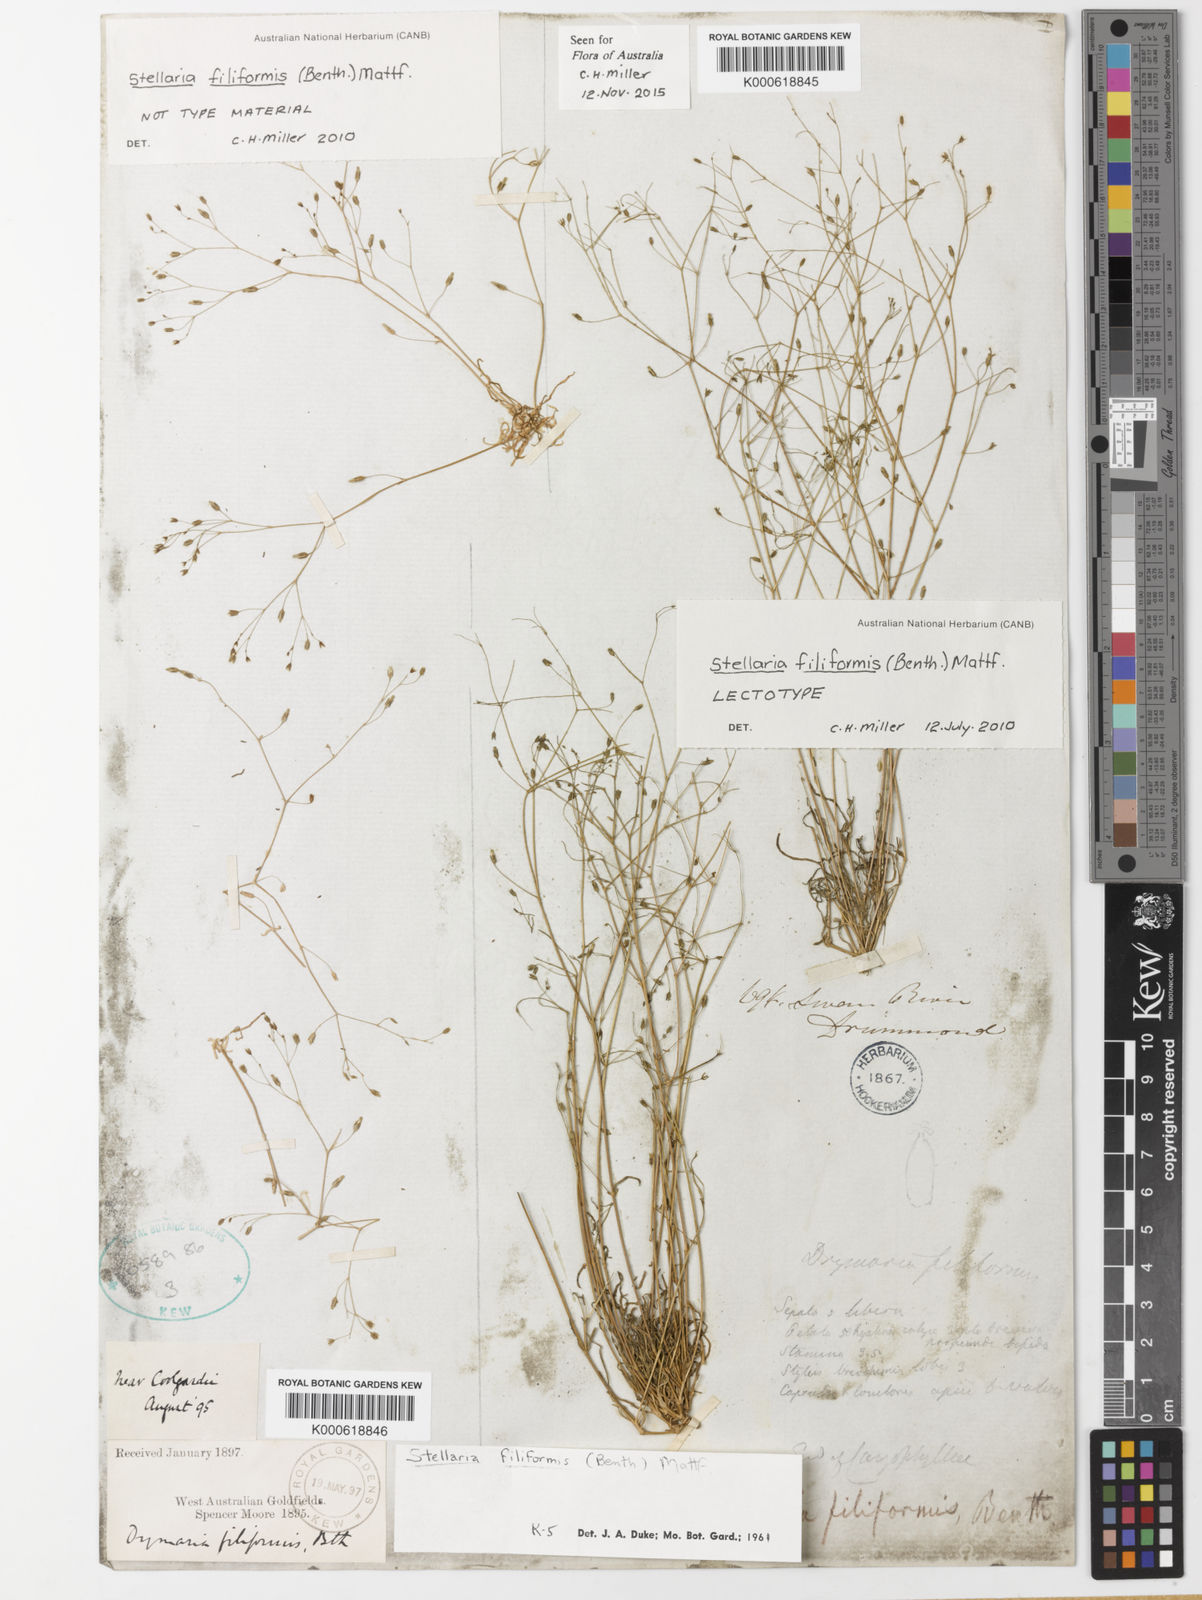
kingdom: Plantae
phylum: Tracheophyta
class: Magnoliopsida
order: Caryophyllales
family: Caryophyllaceae
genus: Stellaria
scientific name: Stellaria filiformis
